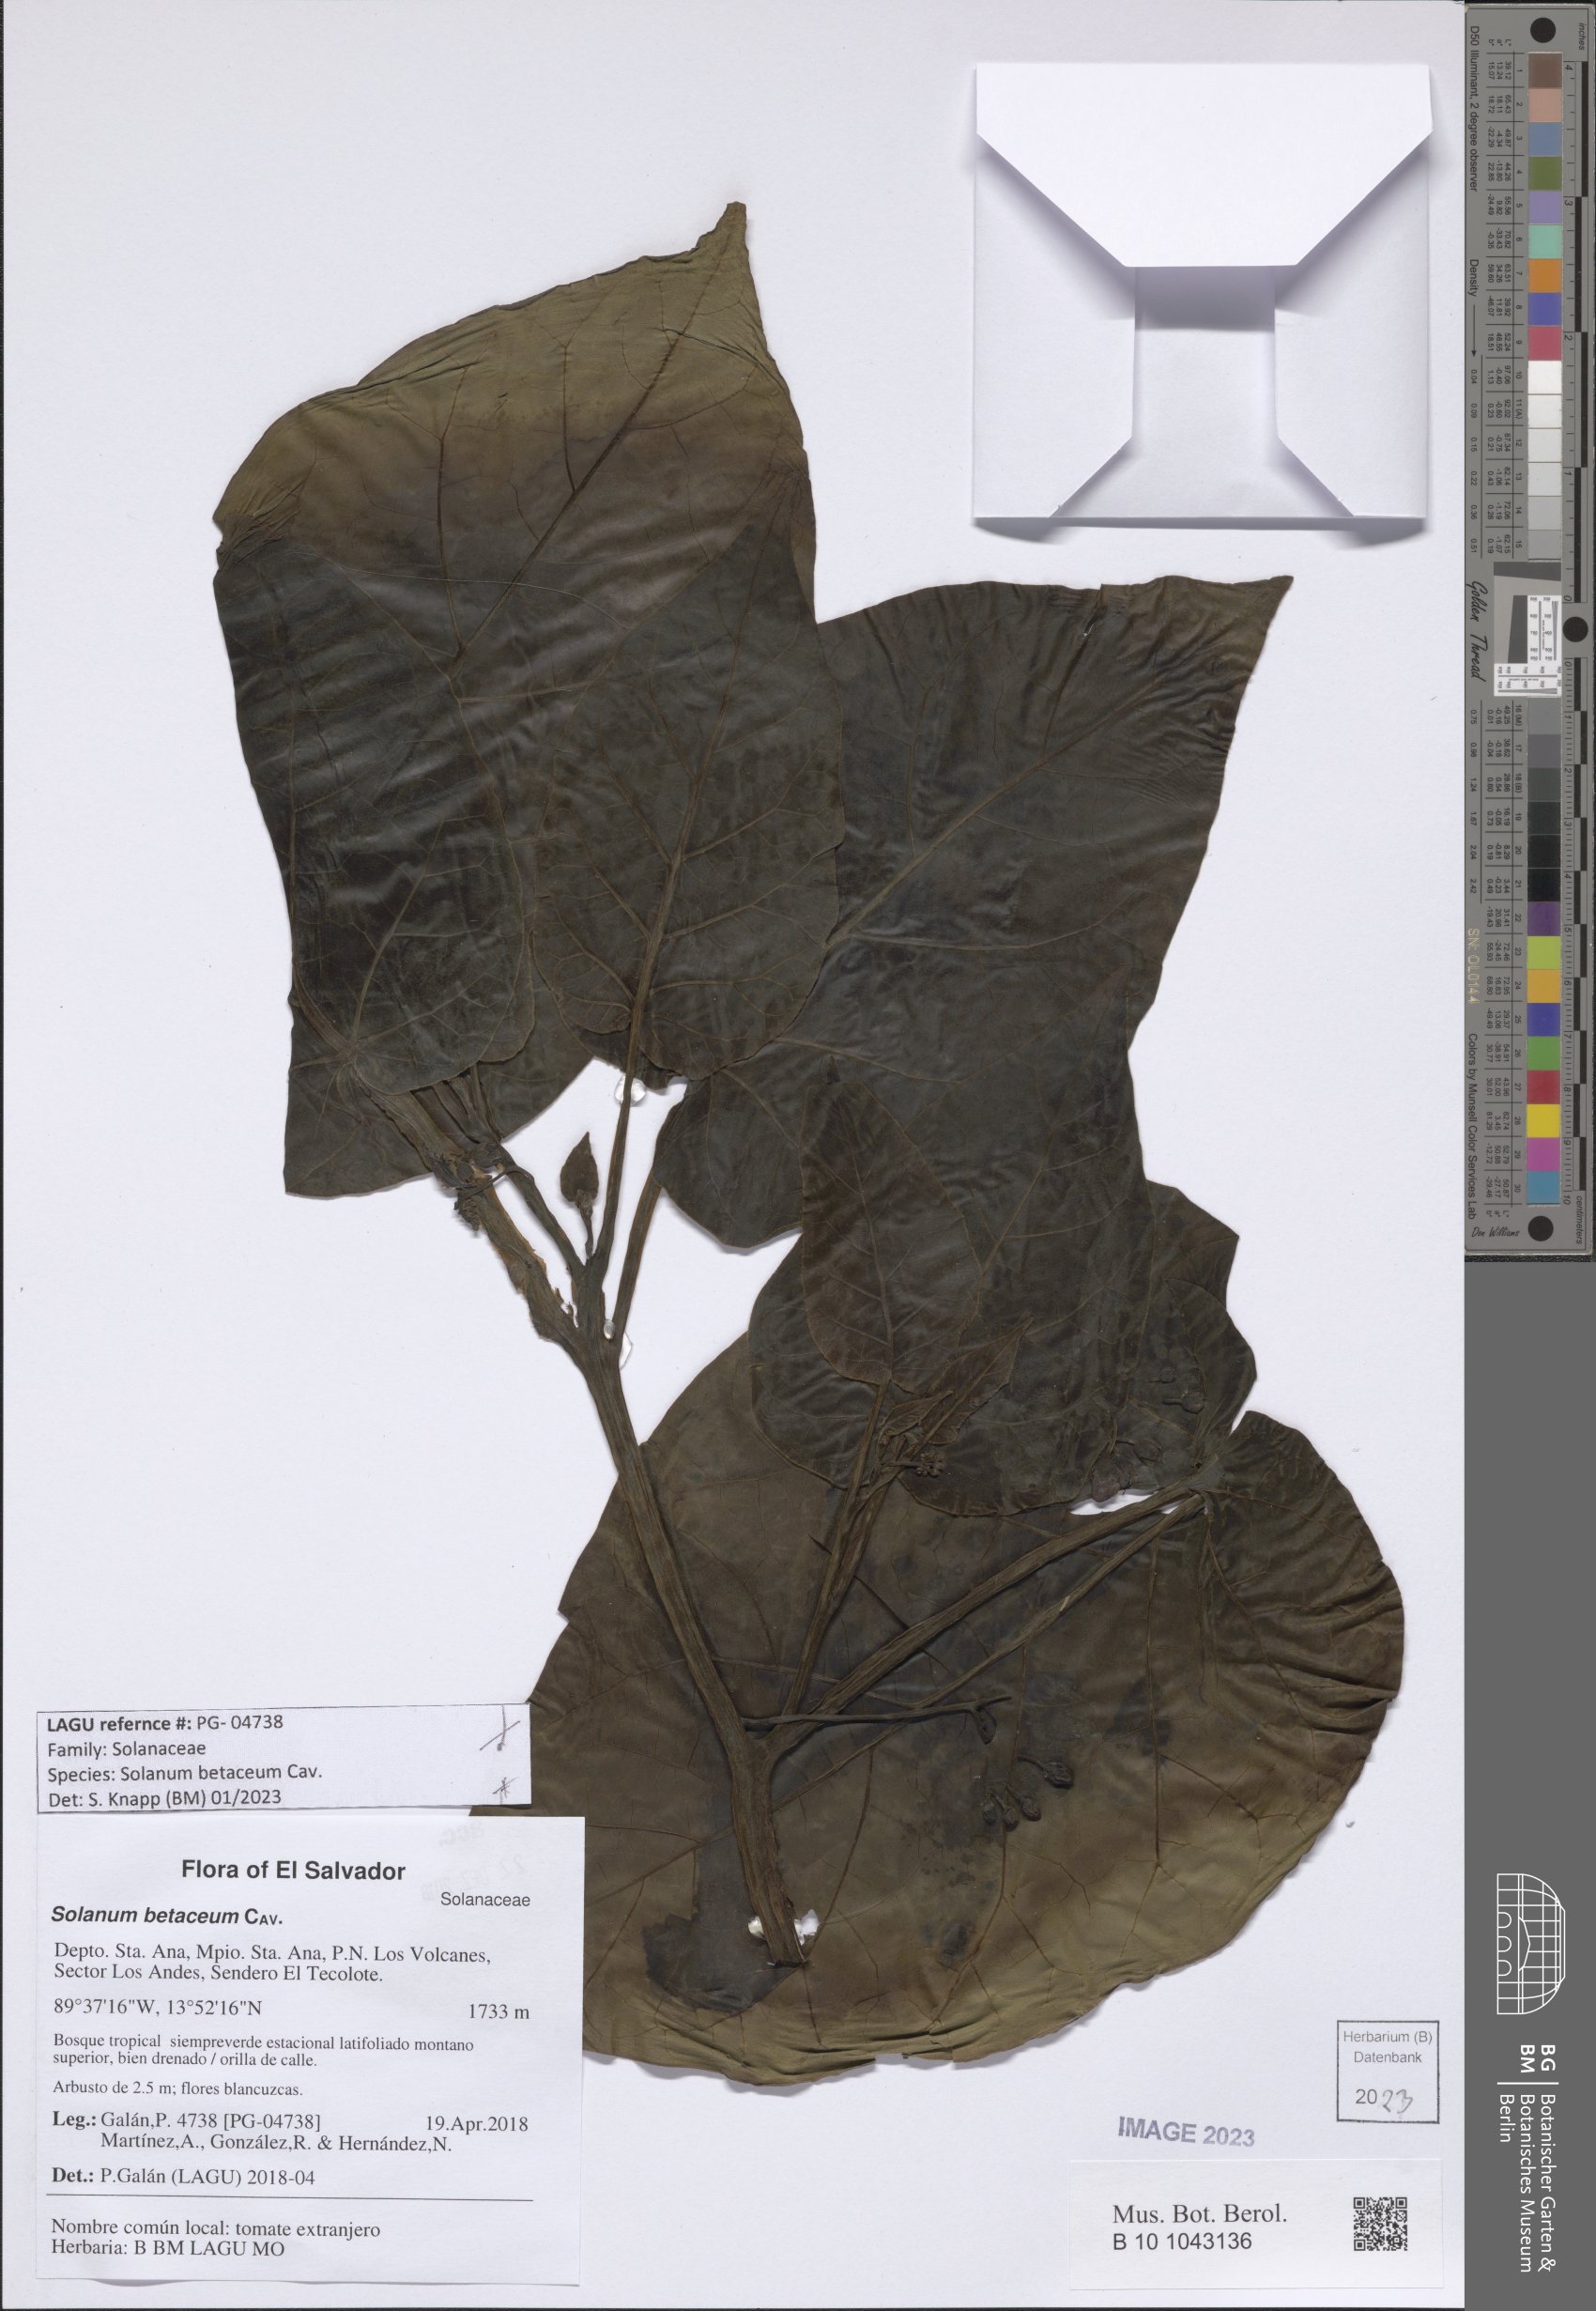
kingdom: Plantae
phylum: Tracheophyta
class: Magnoliopsida
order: Solanales
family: Solanaceae
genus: Solanum
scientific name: Solanum betaceum
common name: Tamarillo
